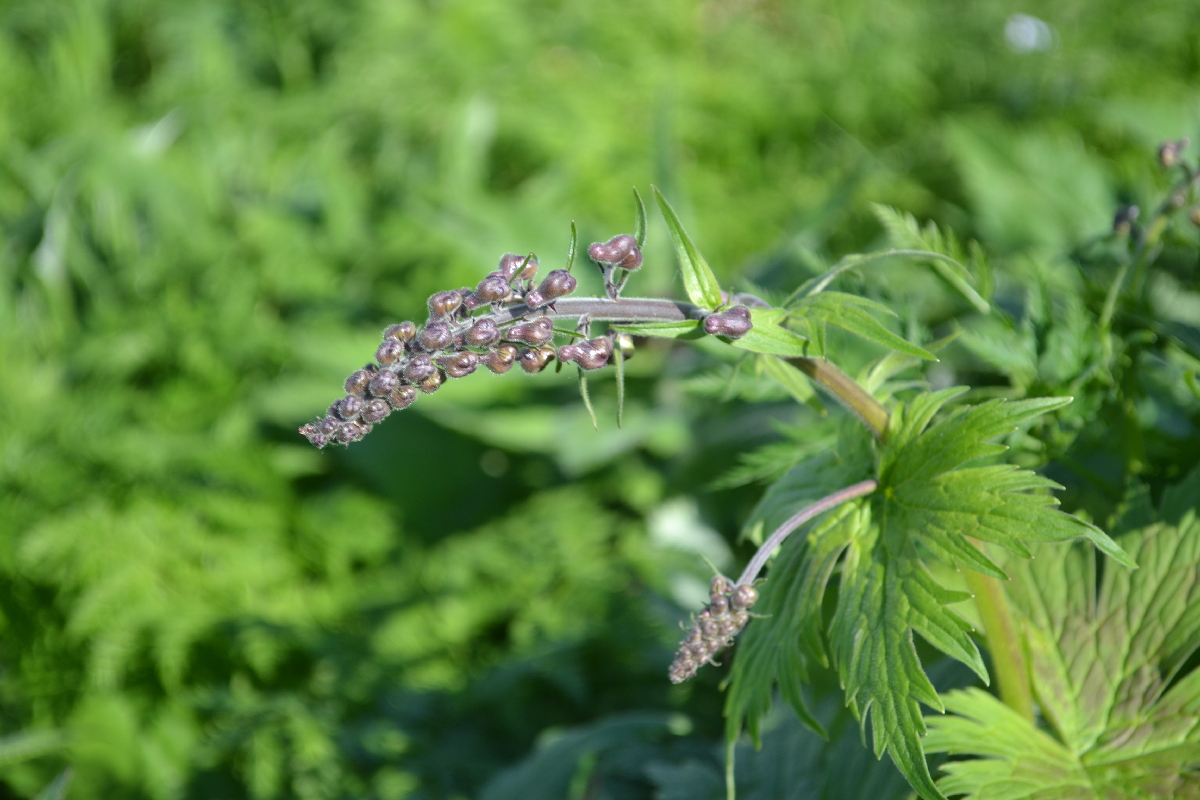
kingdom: Plantae
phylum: Tracheophyta
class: Magnoliopsida
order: Ranunculales
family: Ranunculaceae
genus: Aconitum
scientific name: Aconitum septentrionale
